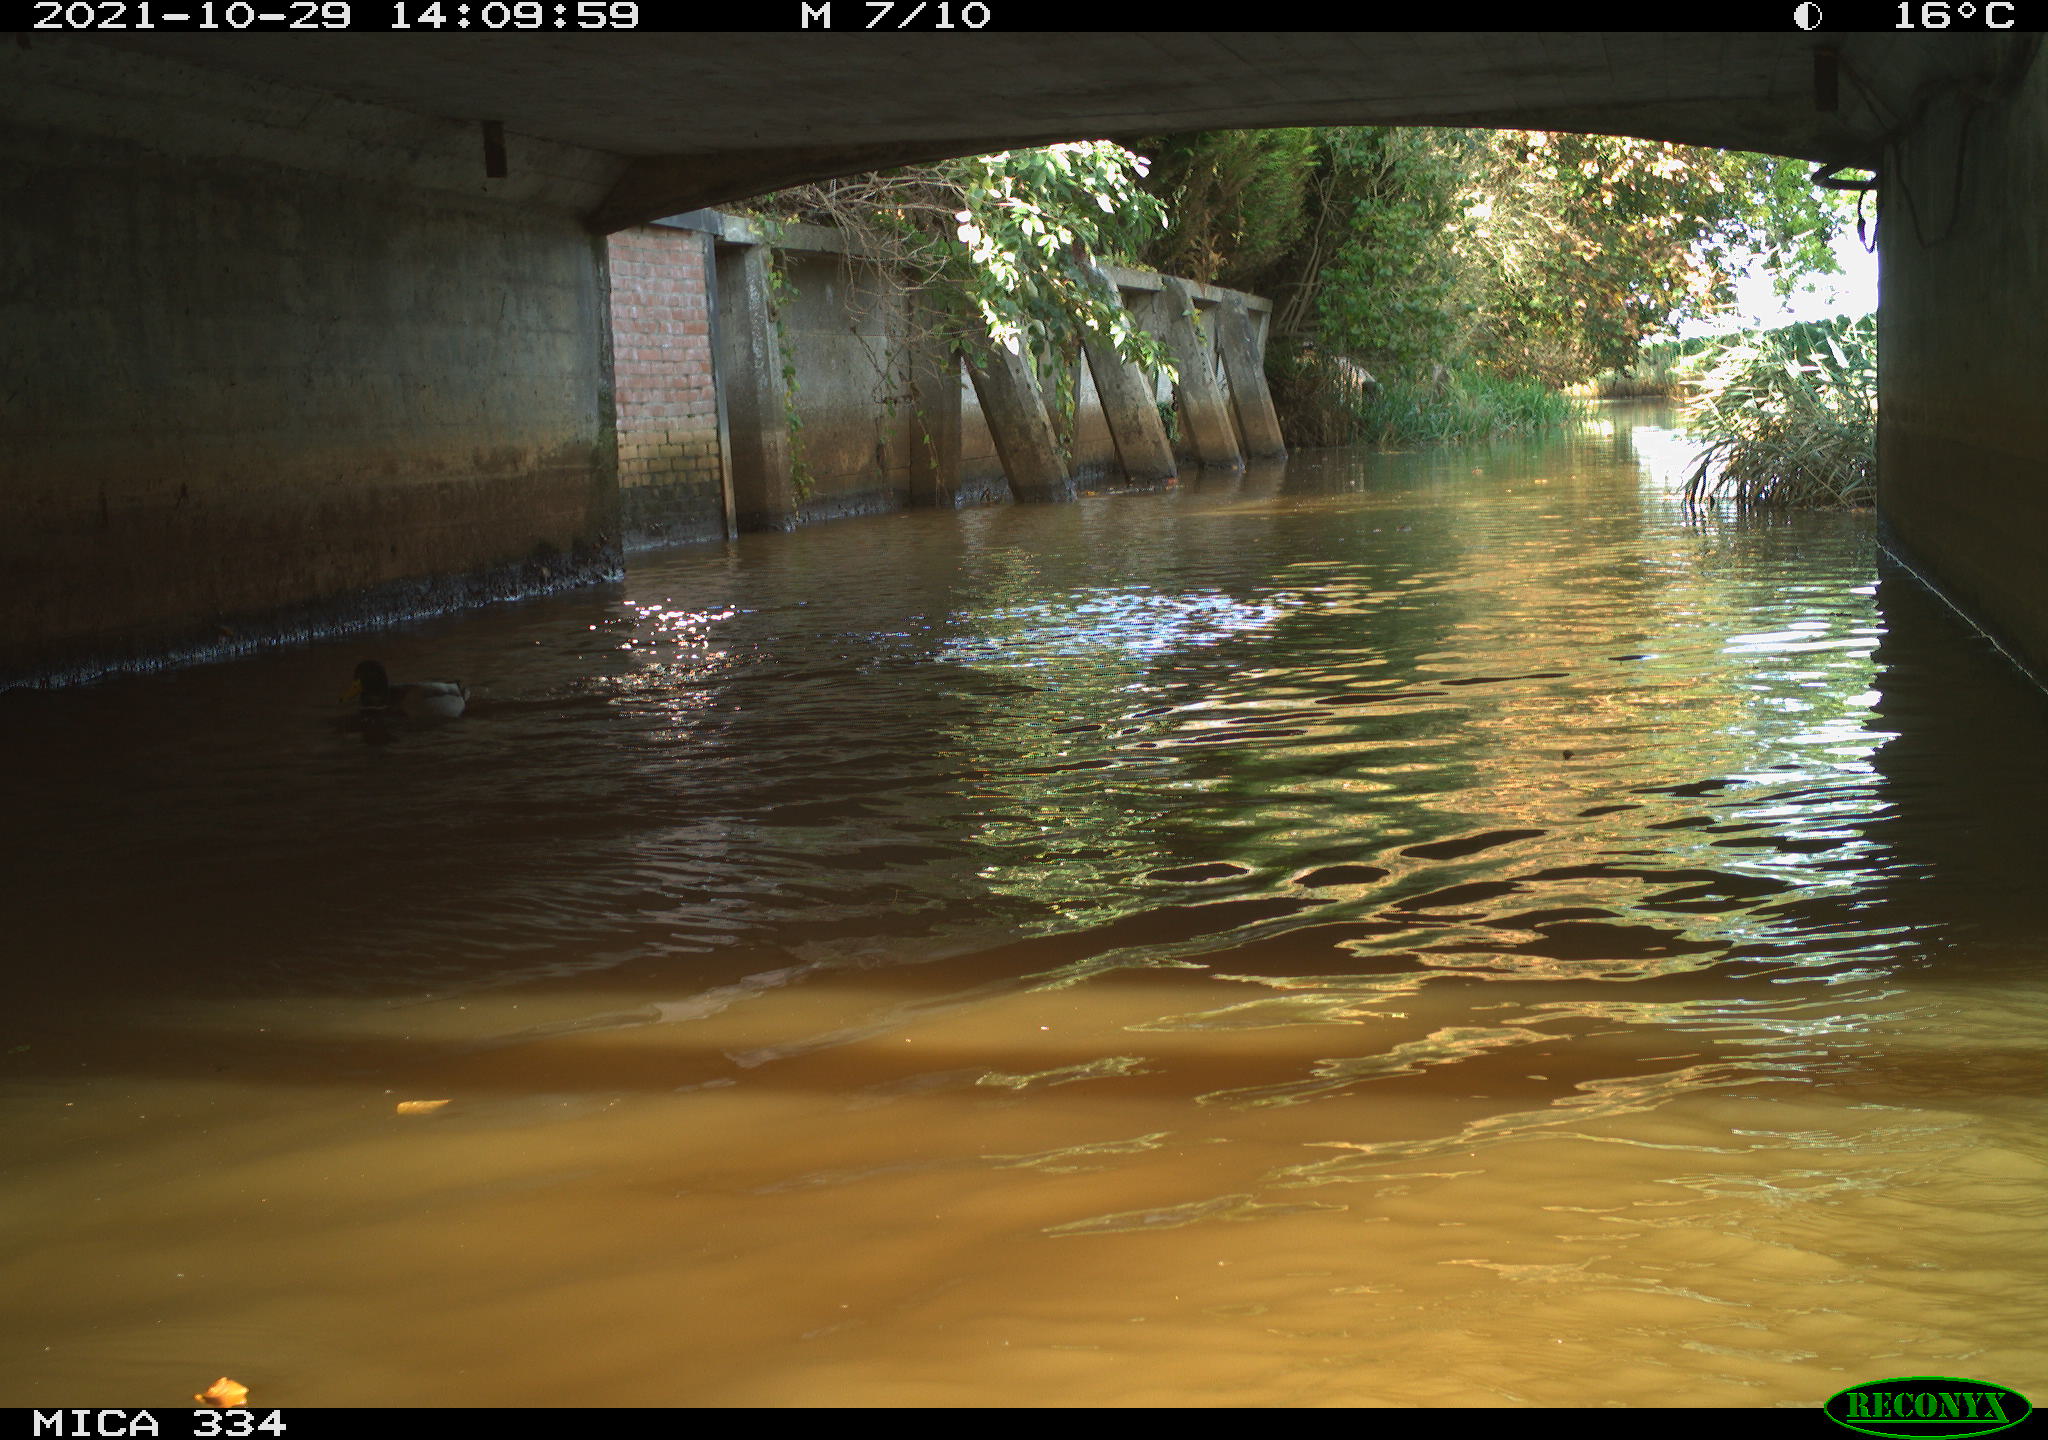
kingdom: Animalia
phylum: Chordata
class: Aves
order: Anseriformes
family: Anatidae
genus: Anas
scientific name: Anas platyrhynchos
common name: Mallard
